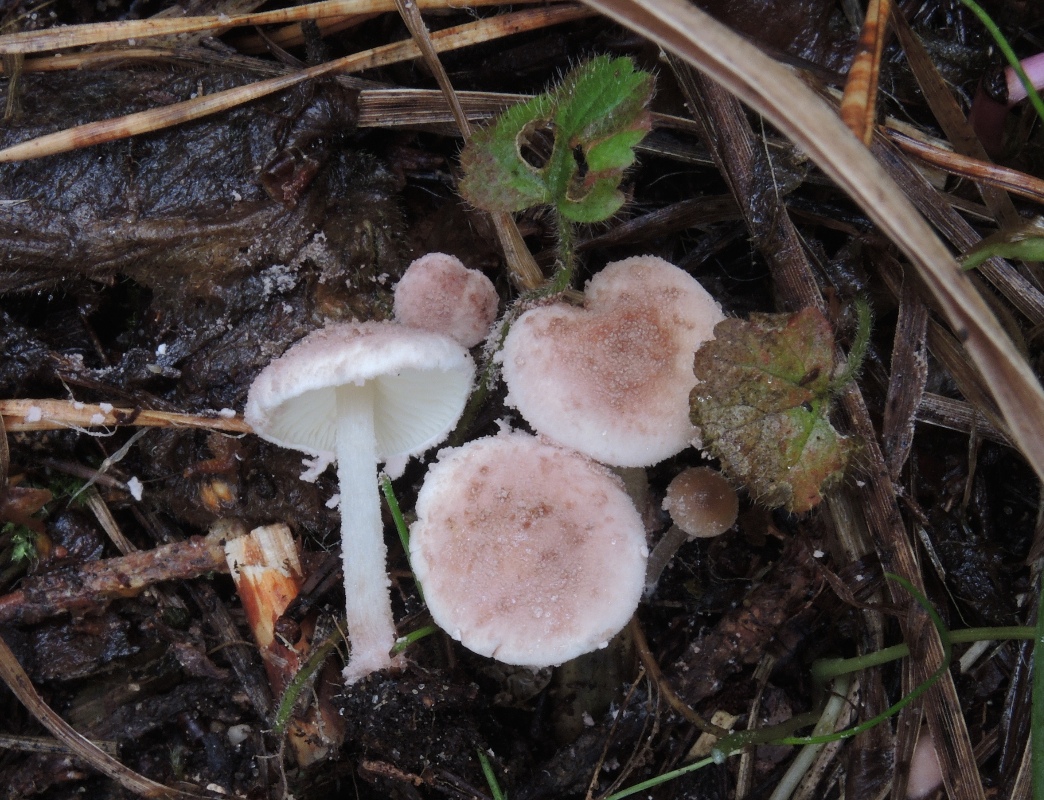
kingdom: Fungi
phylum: Basidiomycota
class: Agaricomycetes
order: Agaricales
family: Agaricaceae
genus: Cystolepiota
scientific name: Cystolepiota moelleri
